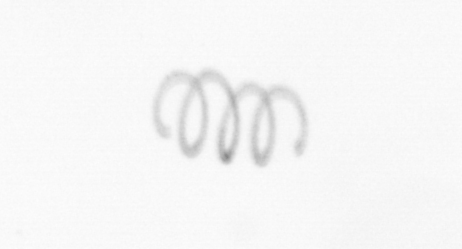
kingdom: Chromista
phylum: Ochrophyta
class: Bacillariophyceae
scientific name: Bacillariophyceae
